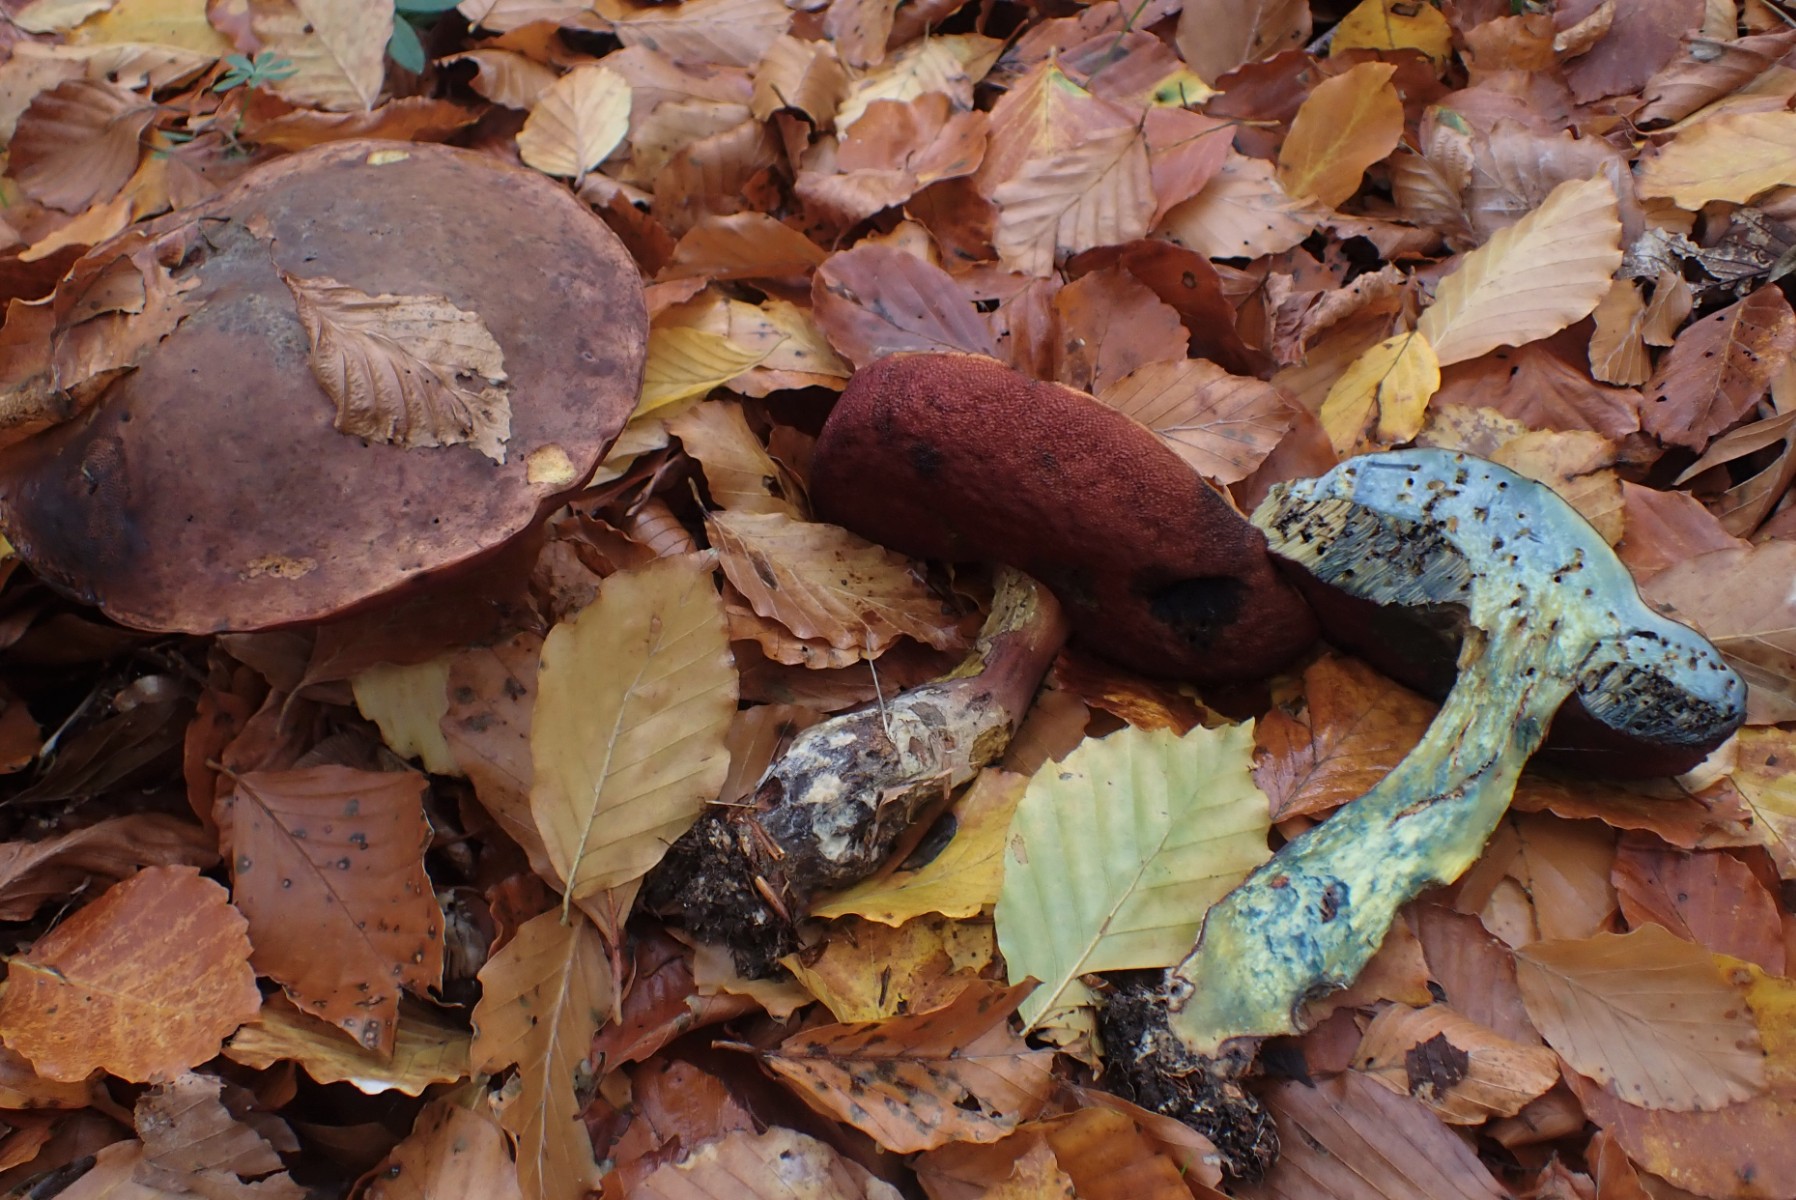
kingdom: Fungi
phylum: Basidiomycota
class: Agaricomycetes
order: Boletales
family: Boletaceae
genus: Neoboletus
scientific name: Neoboletus erythropus
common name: punktstokket indigorørhat
